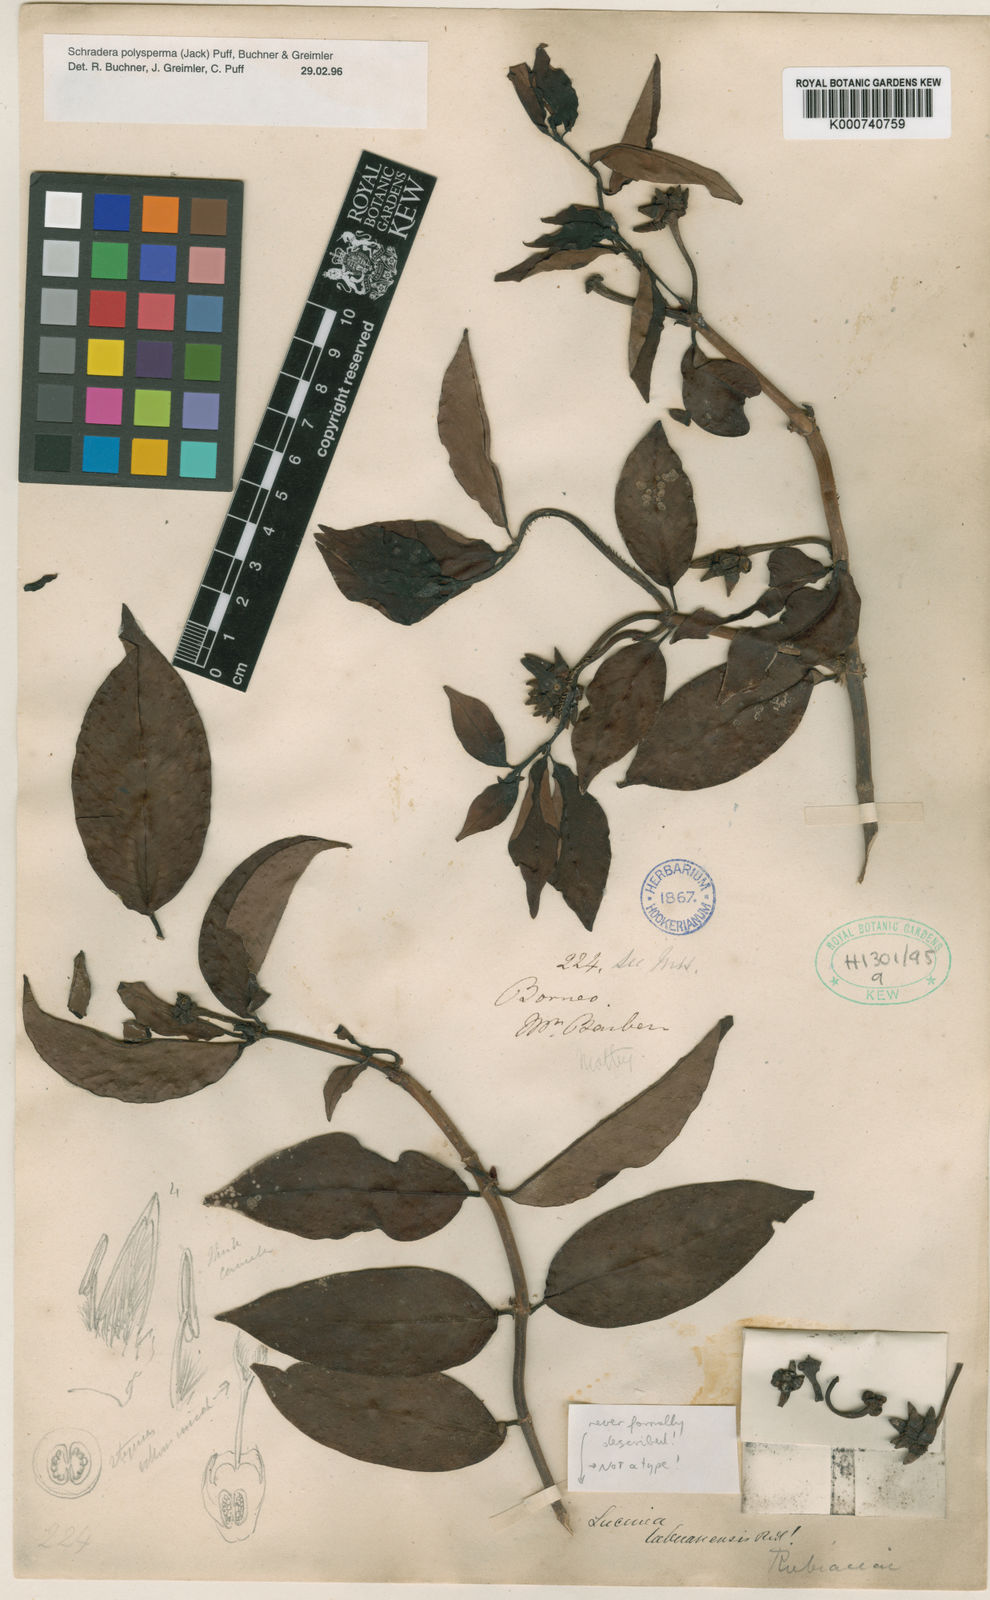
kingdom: Plantae
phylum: Tracheophyta
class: Magnoliopsida
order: Gentianales
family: Rubiaceae
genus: Schradera
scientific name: Schradera polysperma
